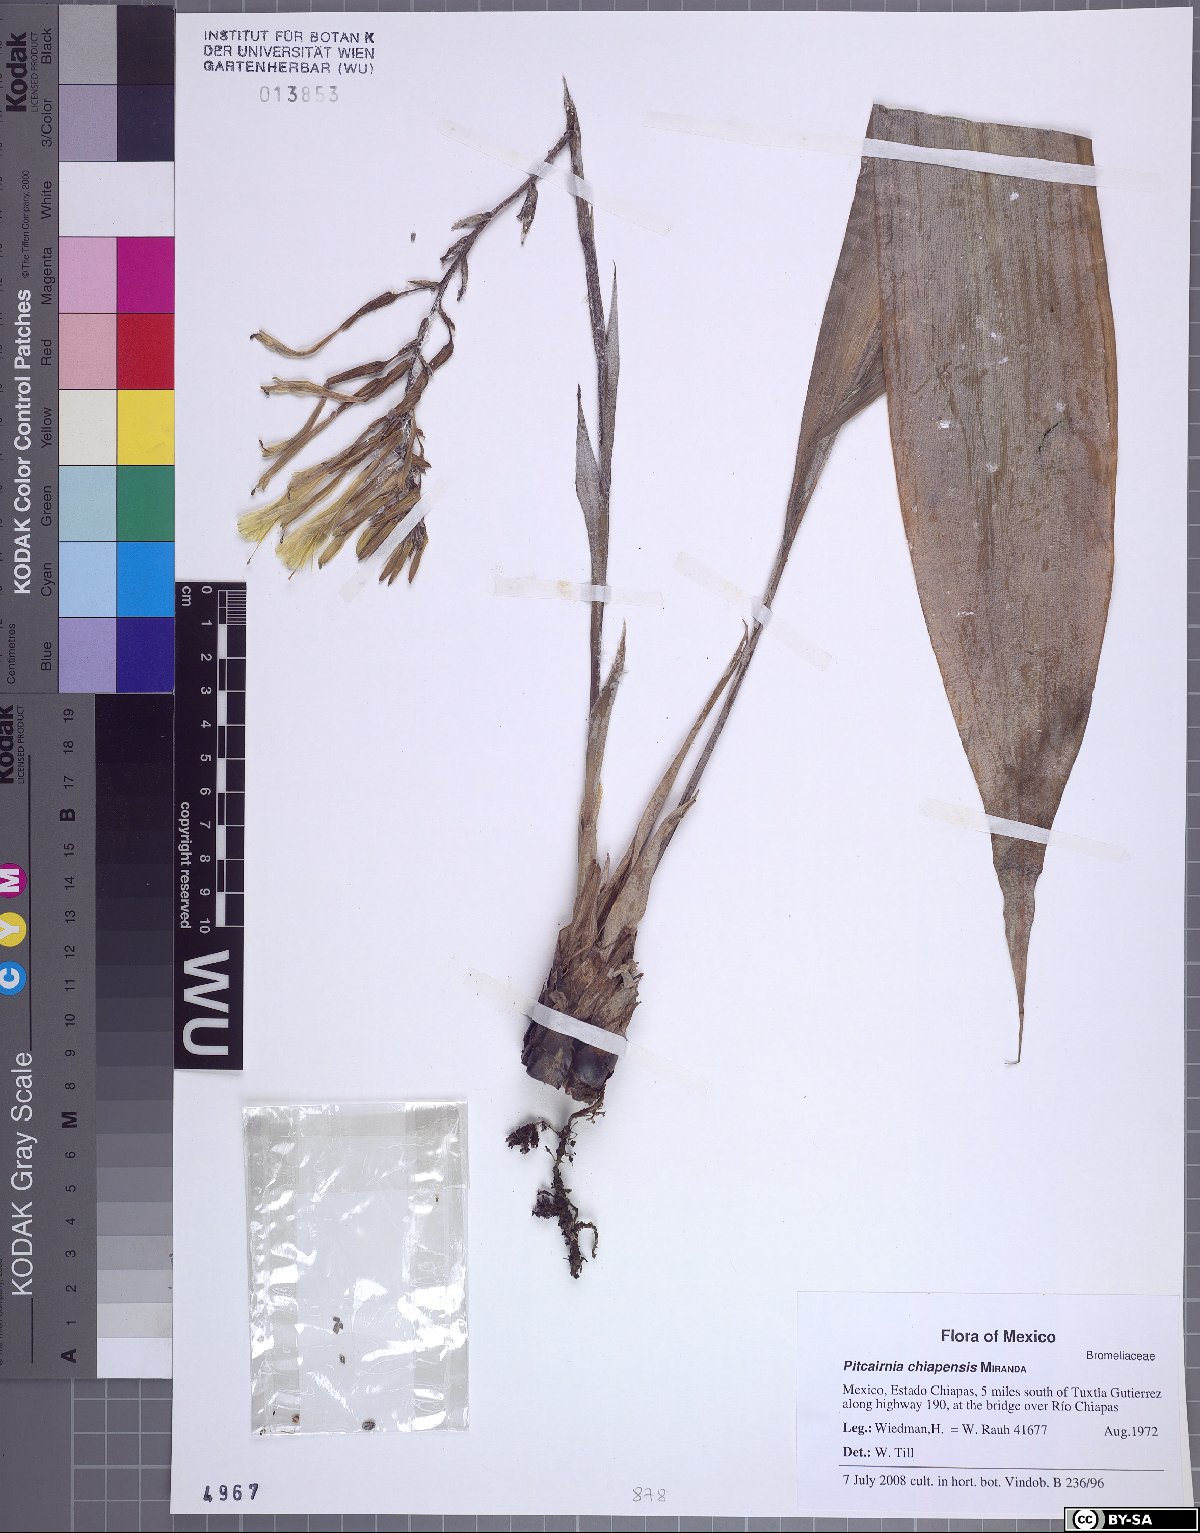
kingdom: Plantae
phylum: Tracheophyta
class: Liliopsida
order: Poales
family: Bromeliaceae
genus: Pitcairnia
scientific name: Pitcairnia chiapensis
